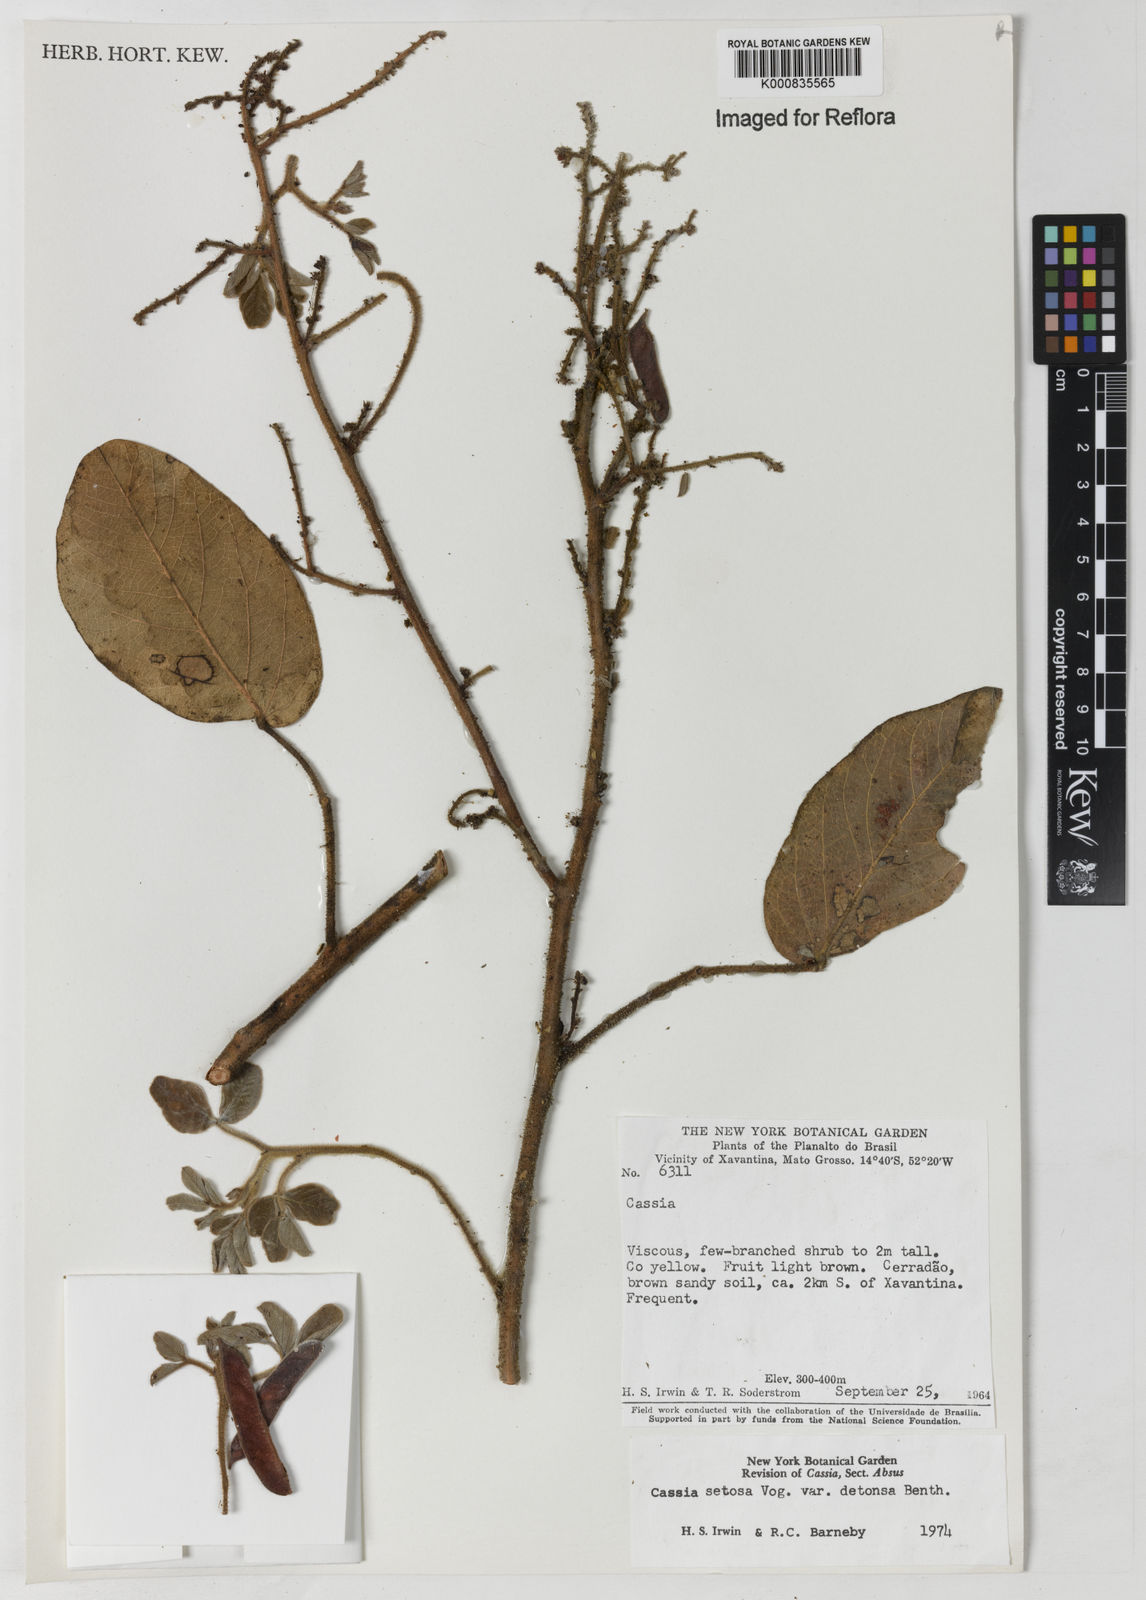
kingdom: Plantae
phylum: Tracheophyta
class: Magnoliopsida
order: Fabales
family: Fabaceae
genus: Chamaecrista
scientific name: Chamaecrista setosa
